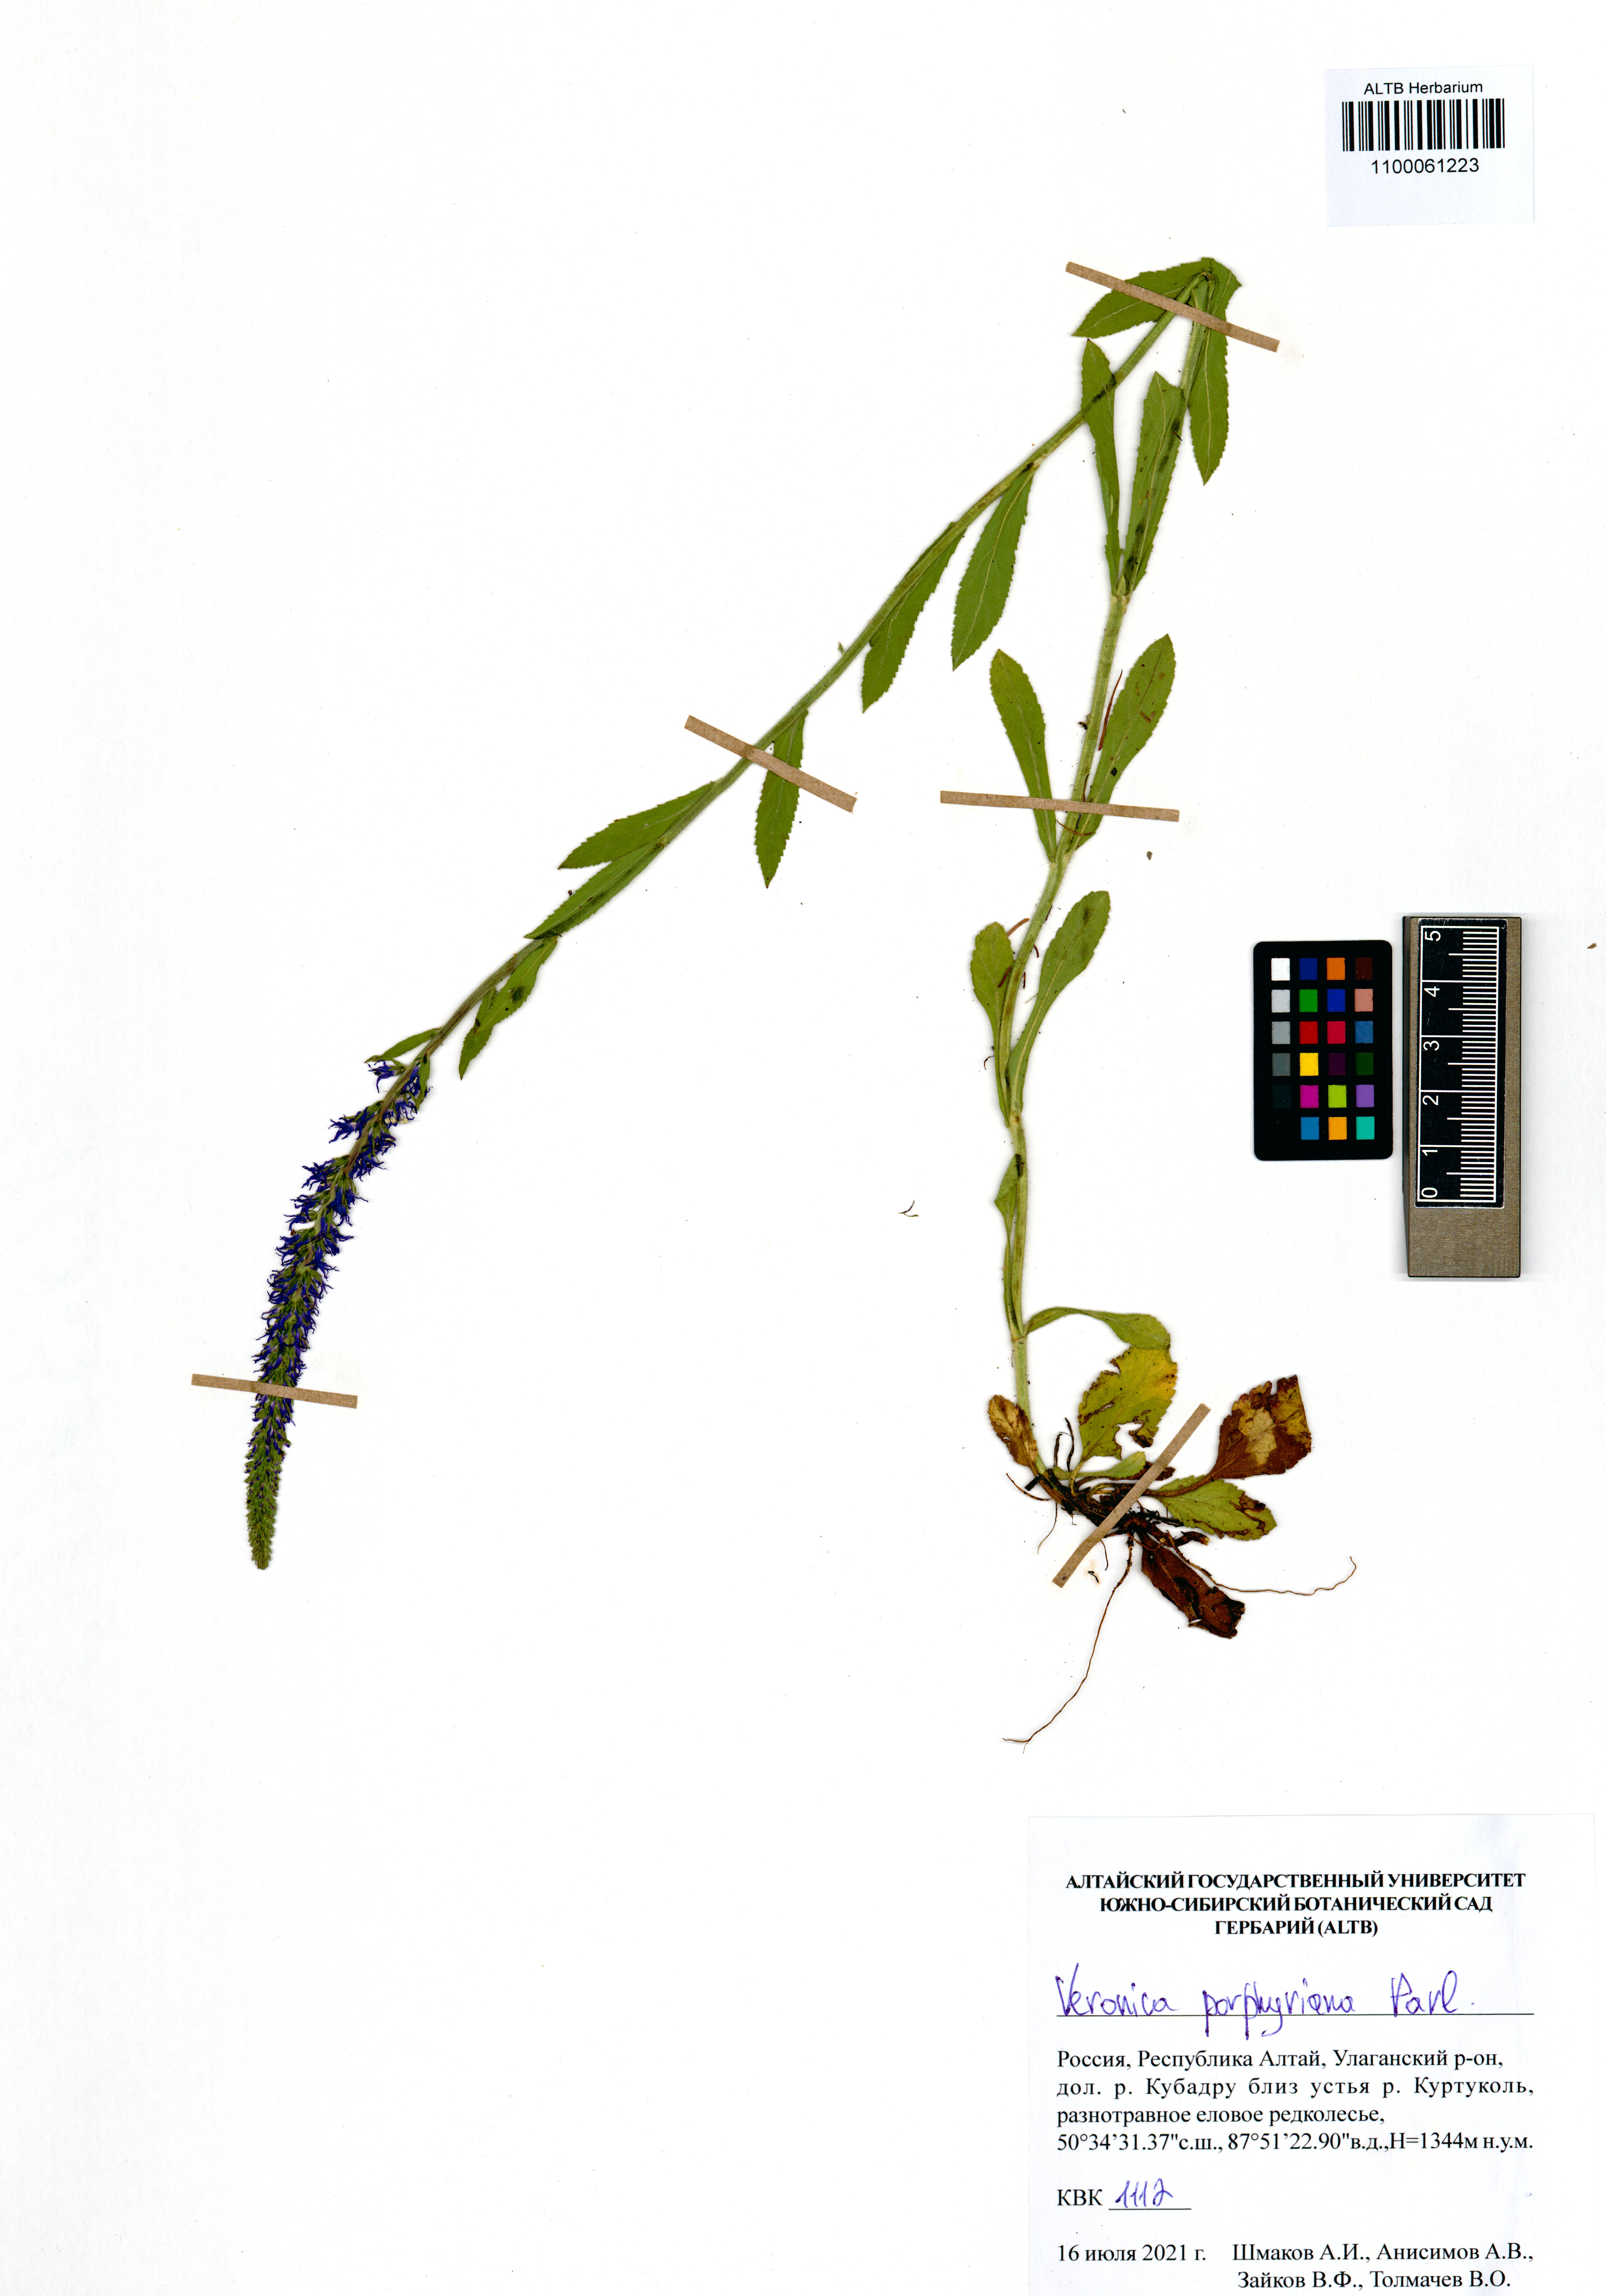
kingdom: Plantae
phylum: Tracheophyta
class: Magnoliopsida
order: Lamiales
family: Plantaginaceae
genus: Veronica
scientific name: Veronica porphyriana
